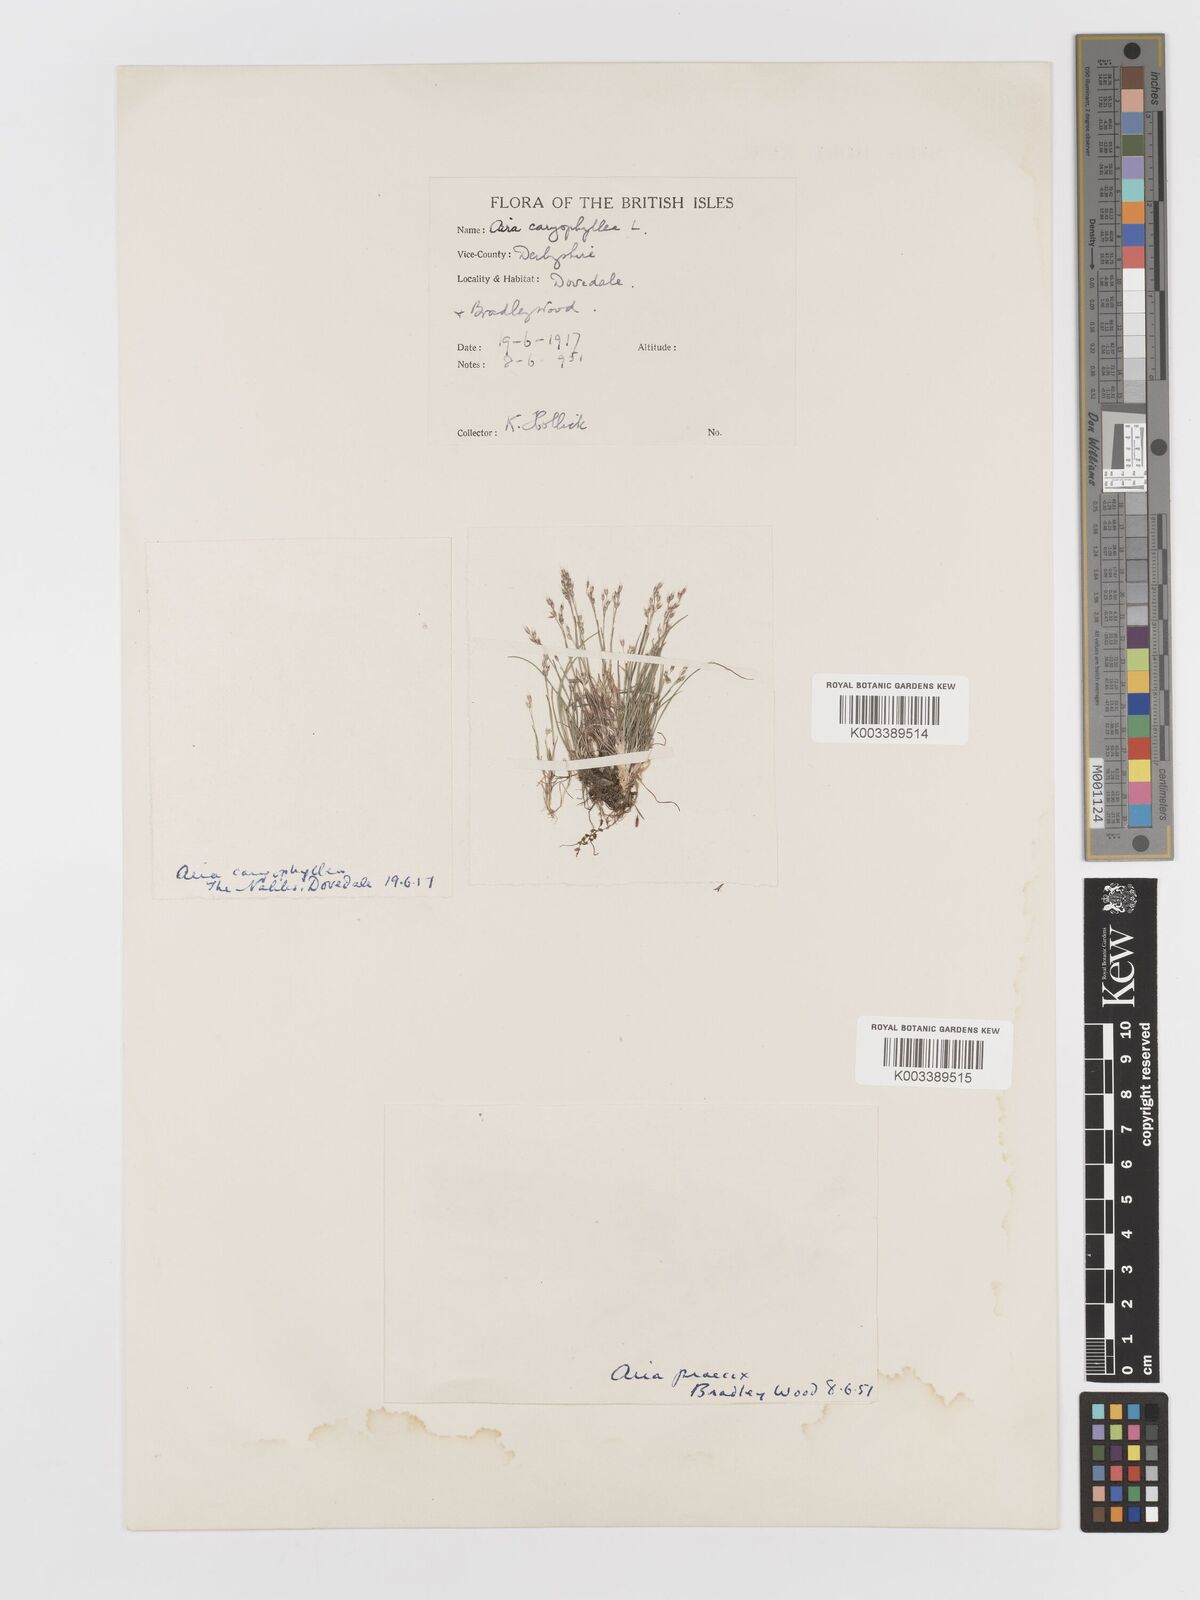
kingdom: Plantae
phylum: Tracheophyta
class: Liliopsida
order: Poales
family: Poaceae
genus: Aira
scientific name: Aira caryophyllea
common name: Silver hairgrass
